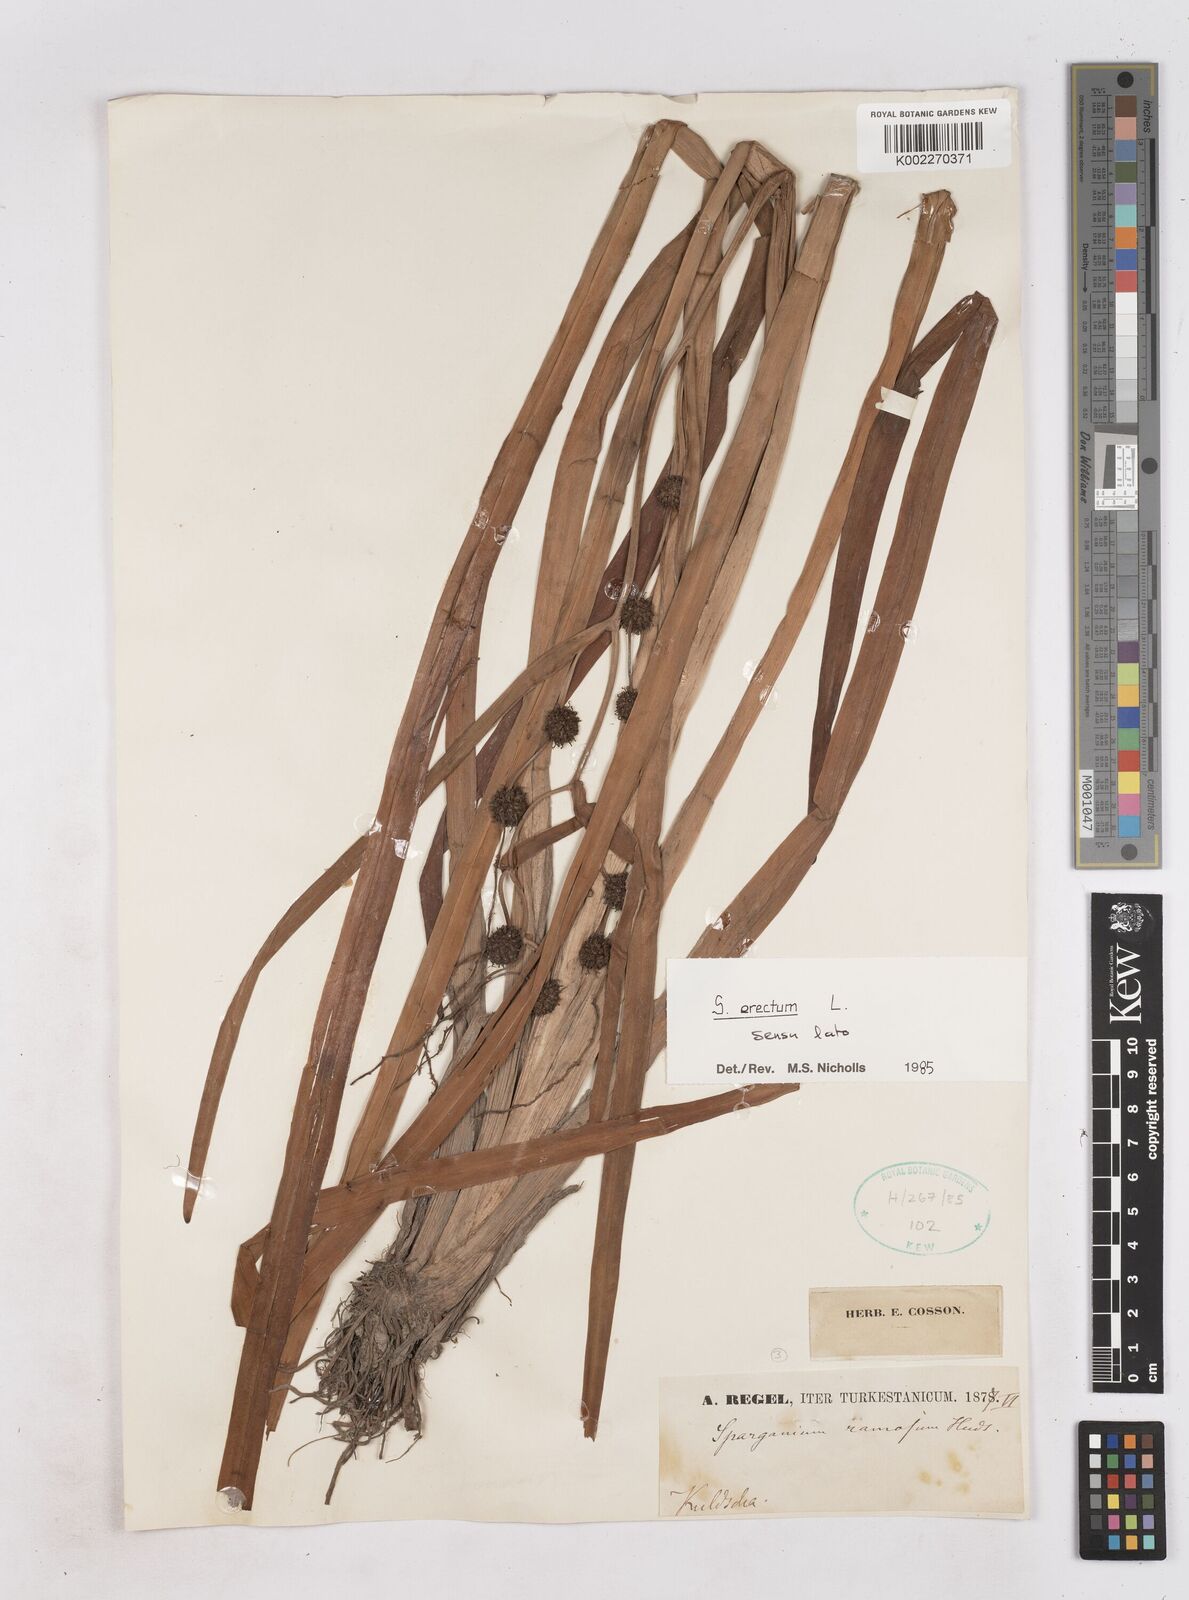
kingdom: Plantae
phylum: Tracheophyta
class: Liliopsida
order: Poales
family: Typhaceae
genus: Sparganium
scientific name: Sparganium erectum
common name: Branched bur-reed
